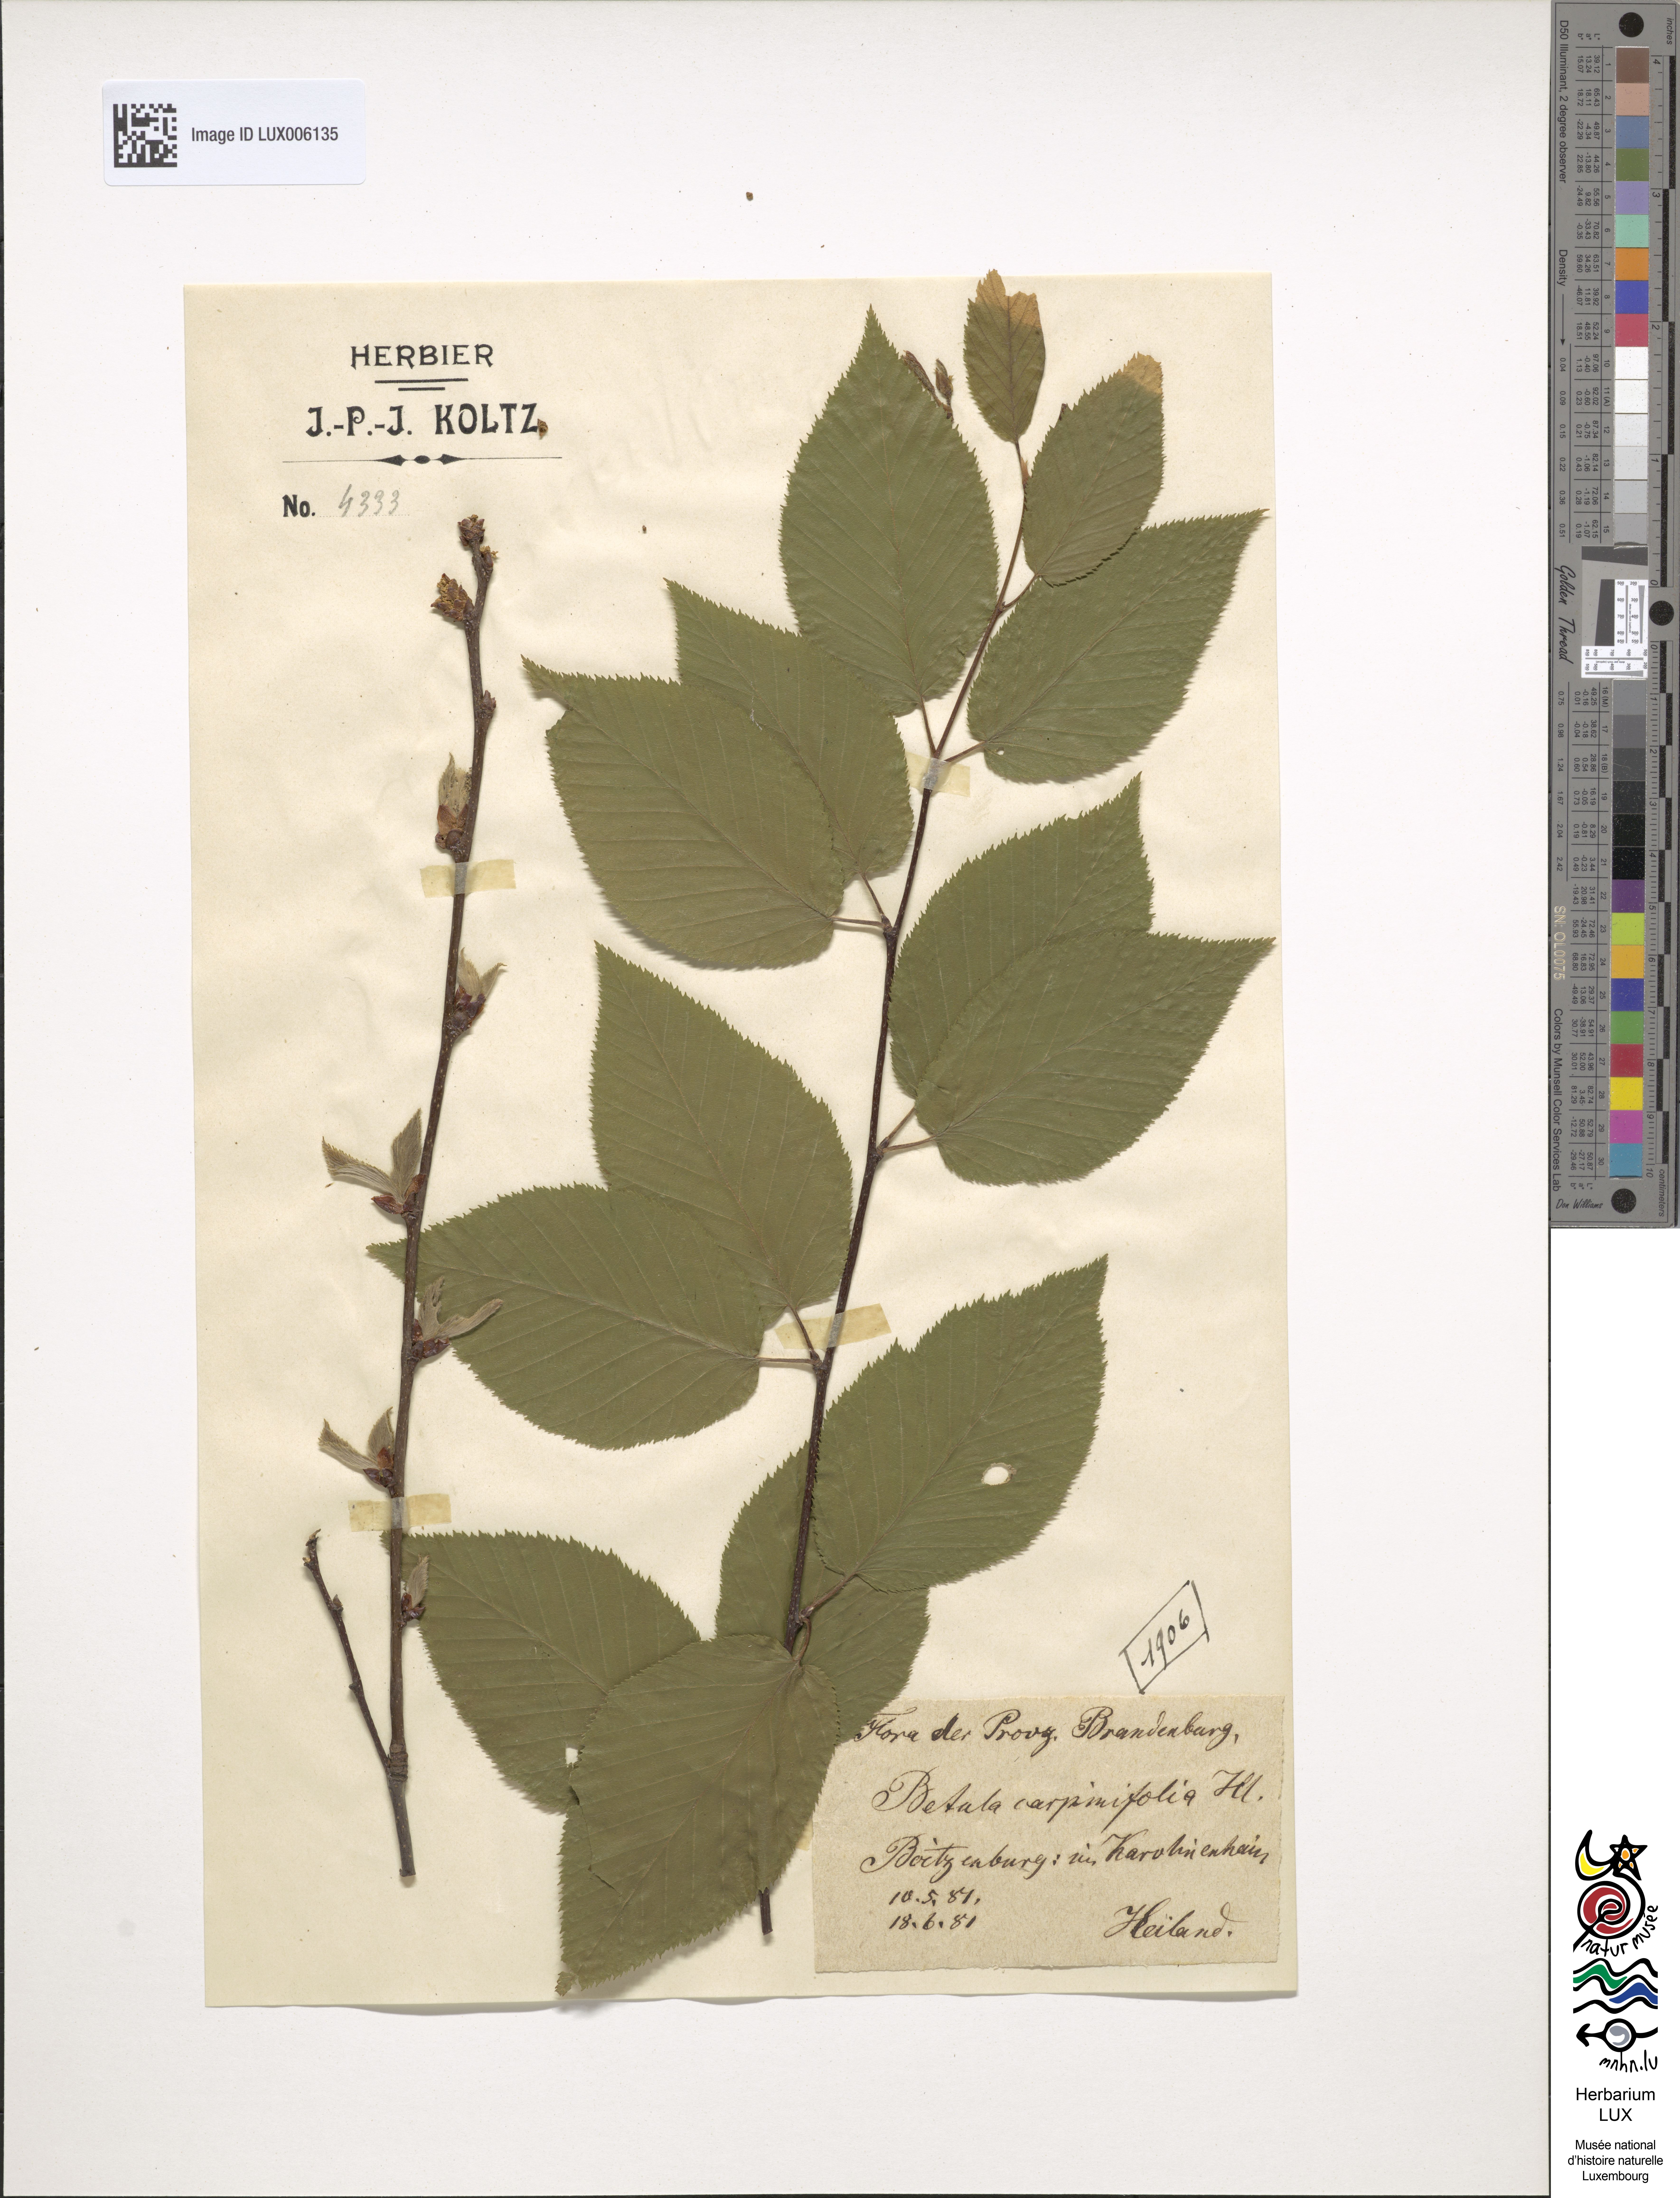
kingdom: Plantae
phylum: Tracheophyta
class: Magnoliopsida
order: Fagales
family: Betulaceae
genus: Betula
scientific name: Betula lenta
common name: Black birch
